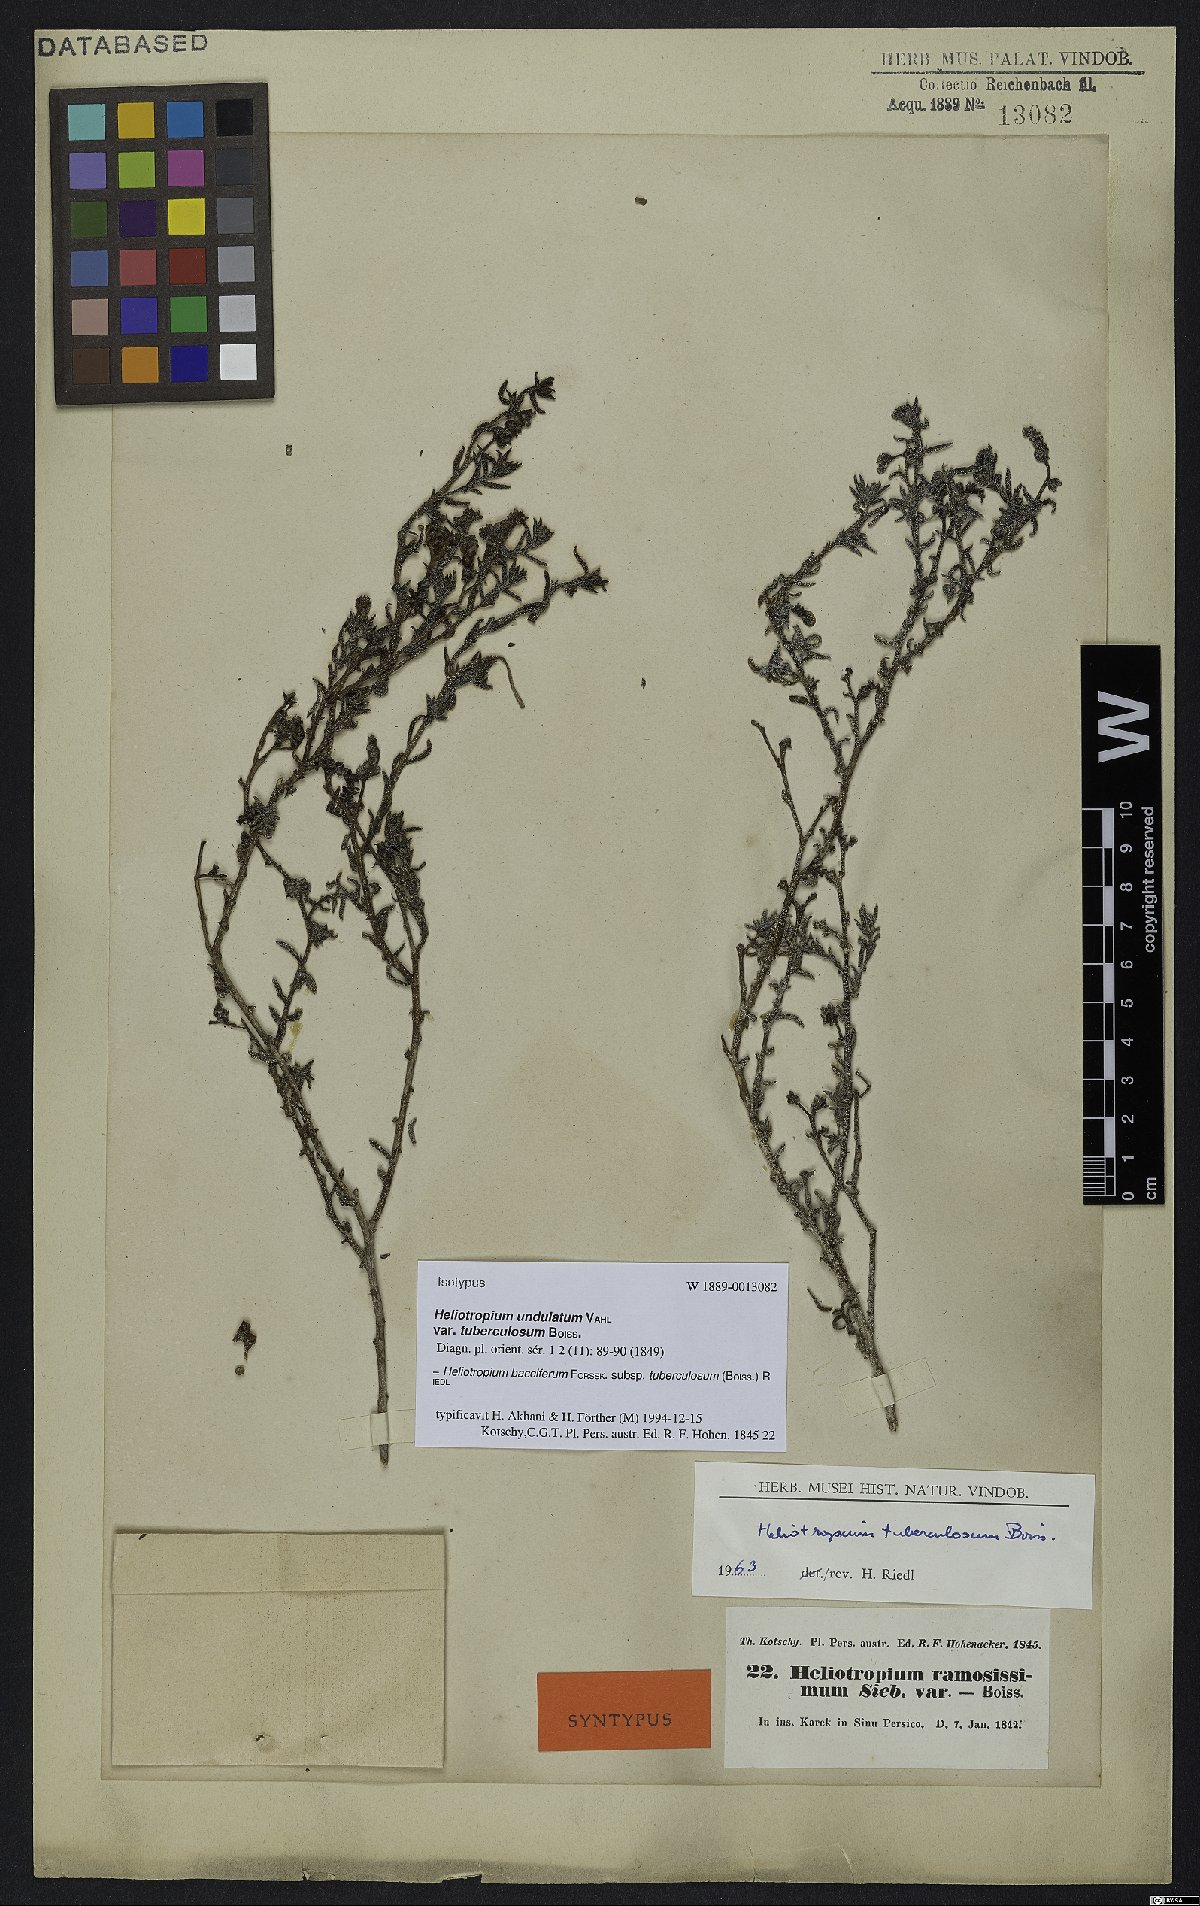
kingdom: Plantae
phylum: Tracheophyta
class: Magnoliopsida
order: Boraginales
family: Heliotropiaceae
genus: Heliotropium
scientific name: Heliotropium bacciferum
